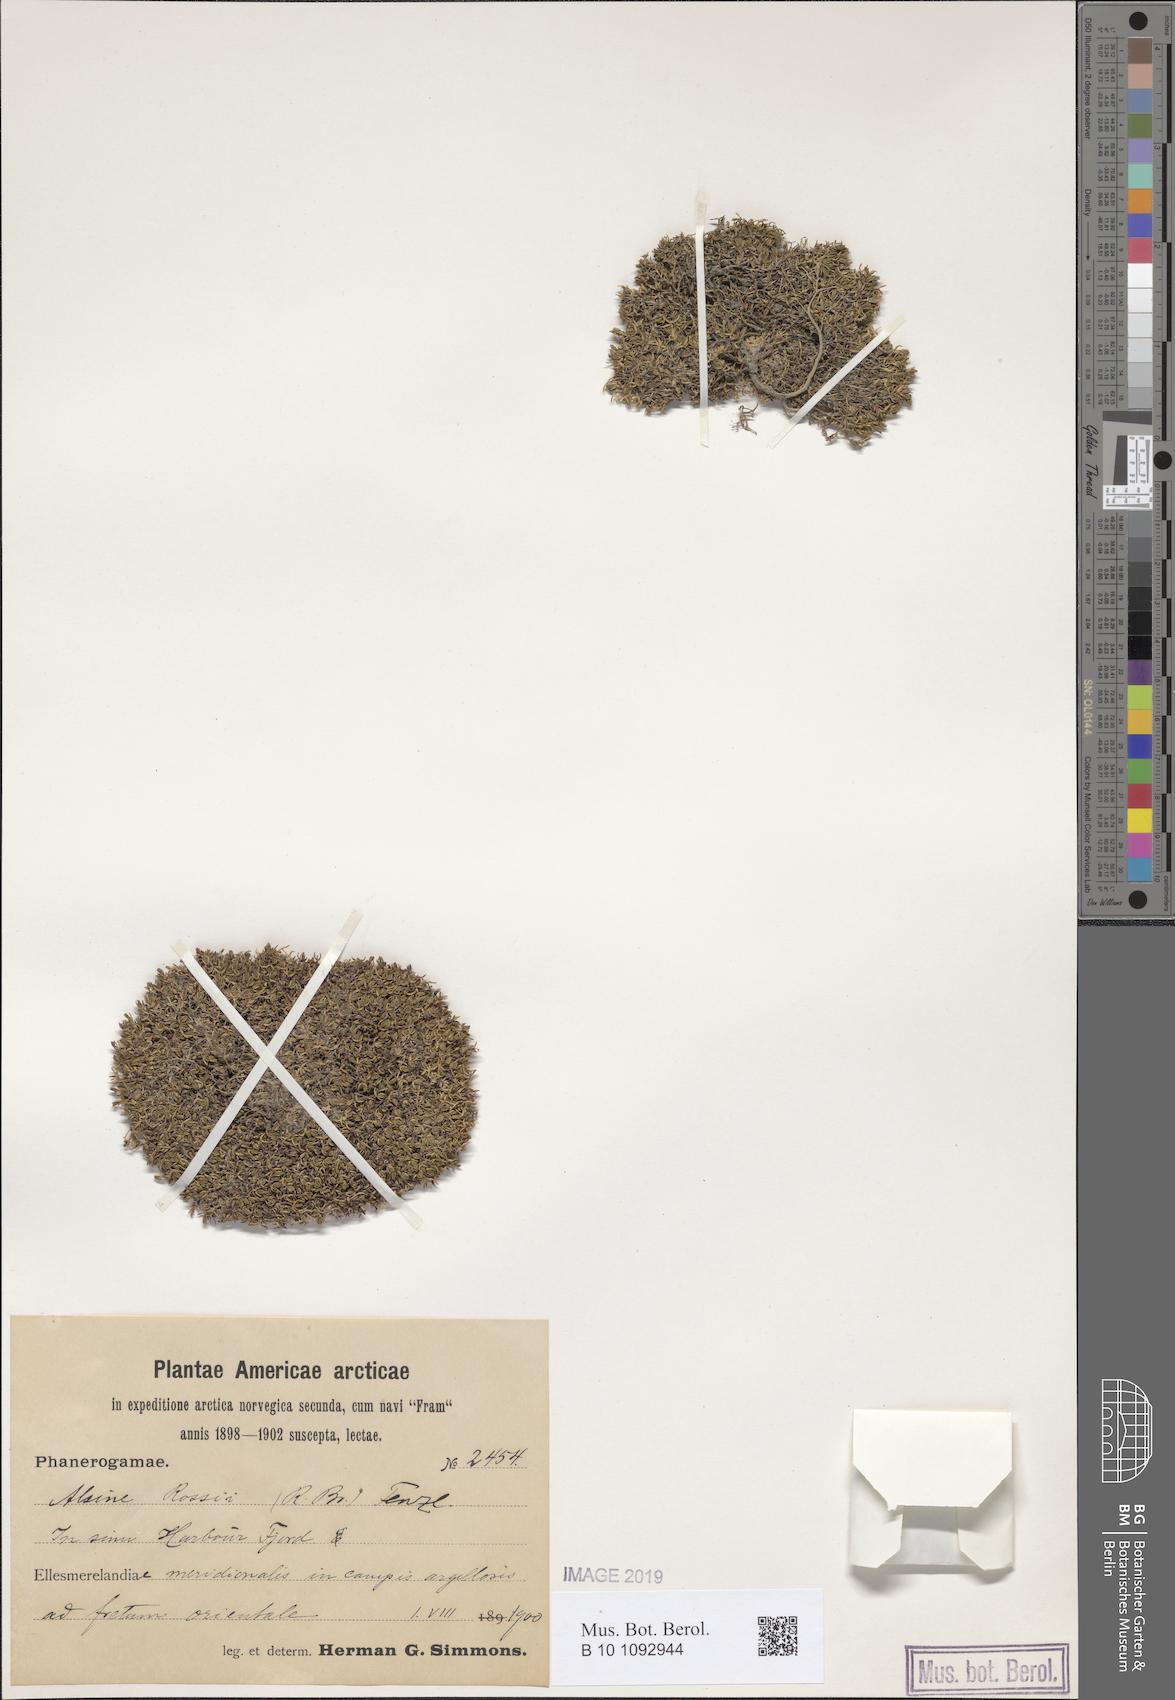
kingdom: Plantae
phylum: Tracheophyta
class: Magnoliopsida
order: Caryophyllales
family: Caryophyllaceae
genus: Sabulina
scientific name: Sabulina rosei
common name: Ross' sandwort
